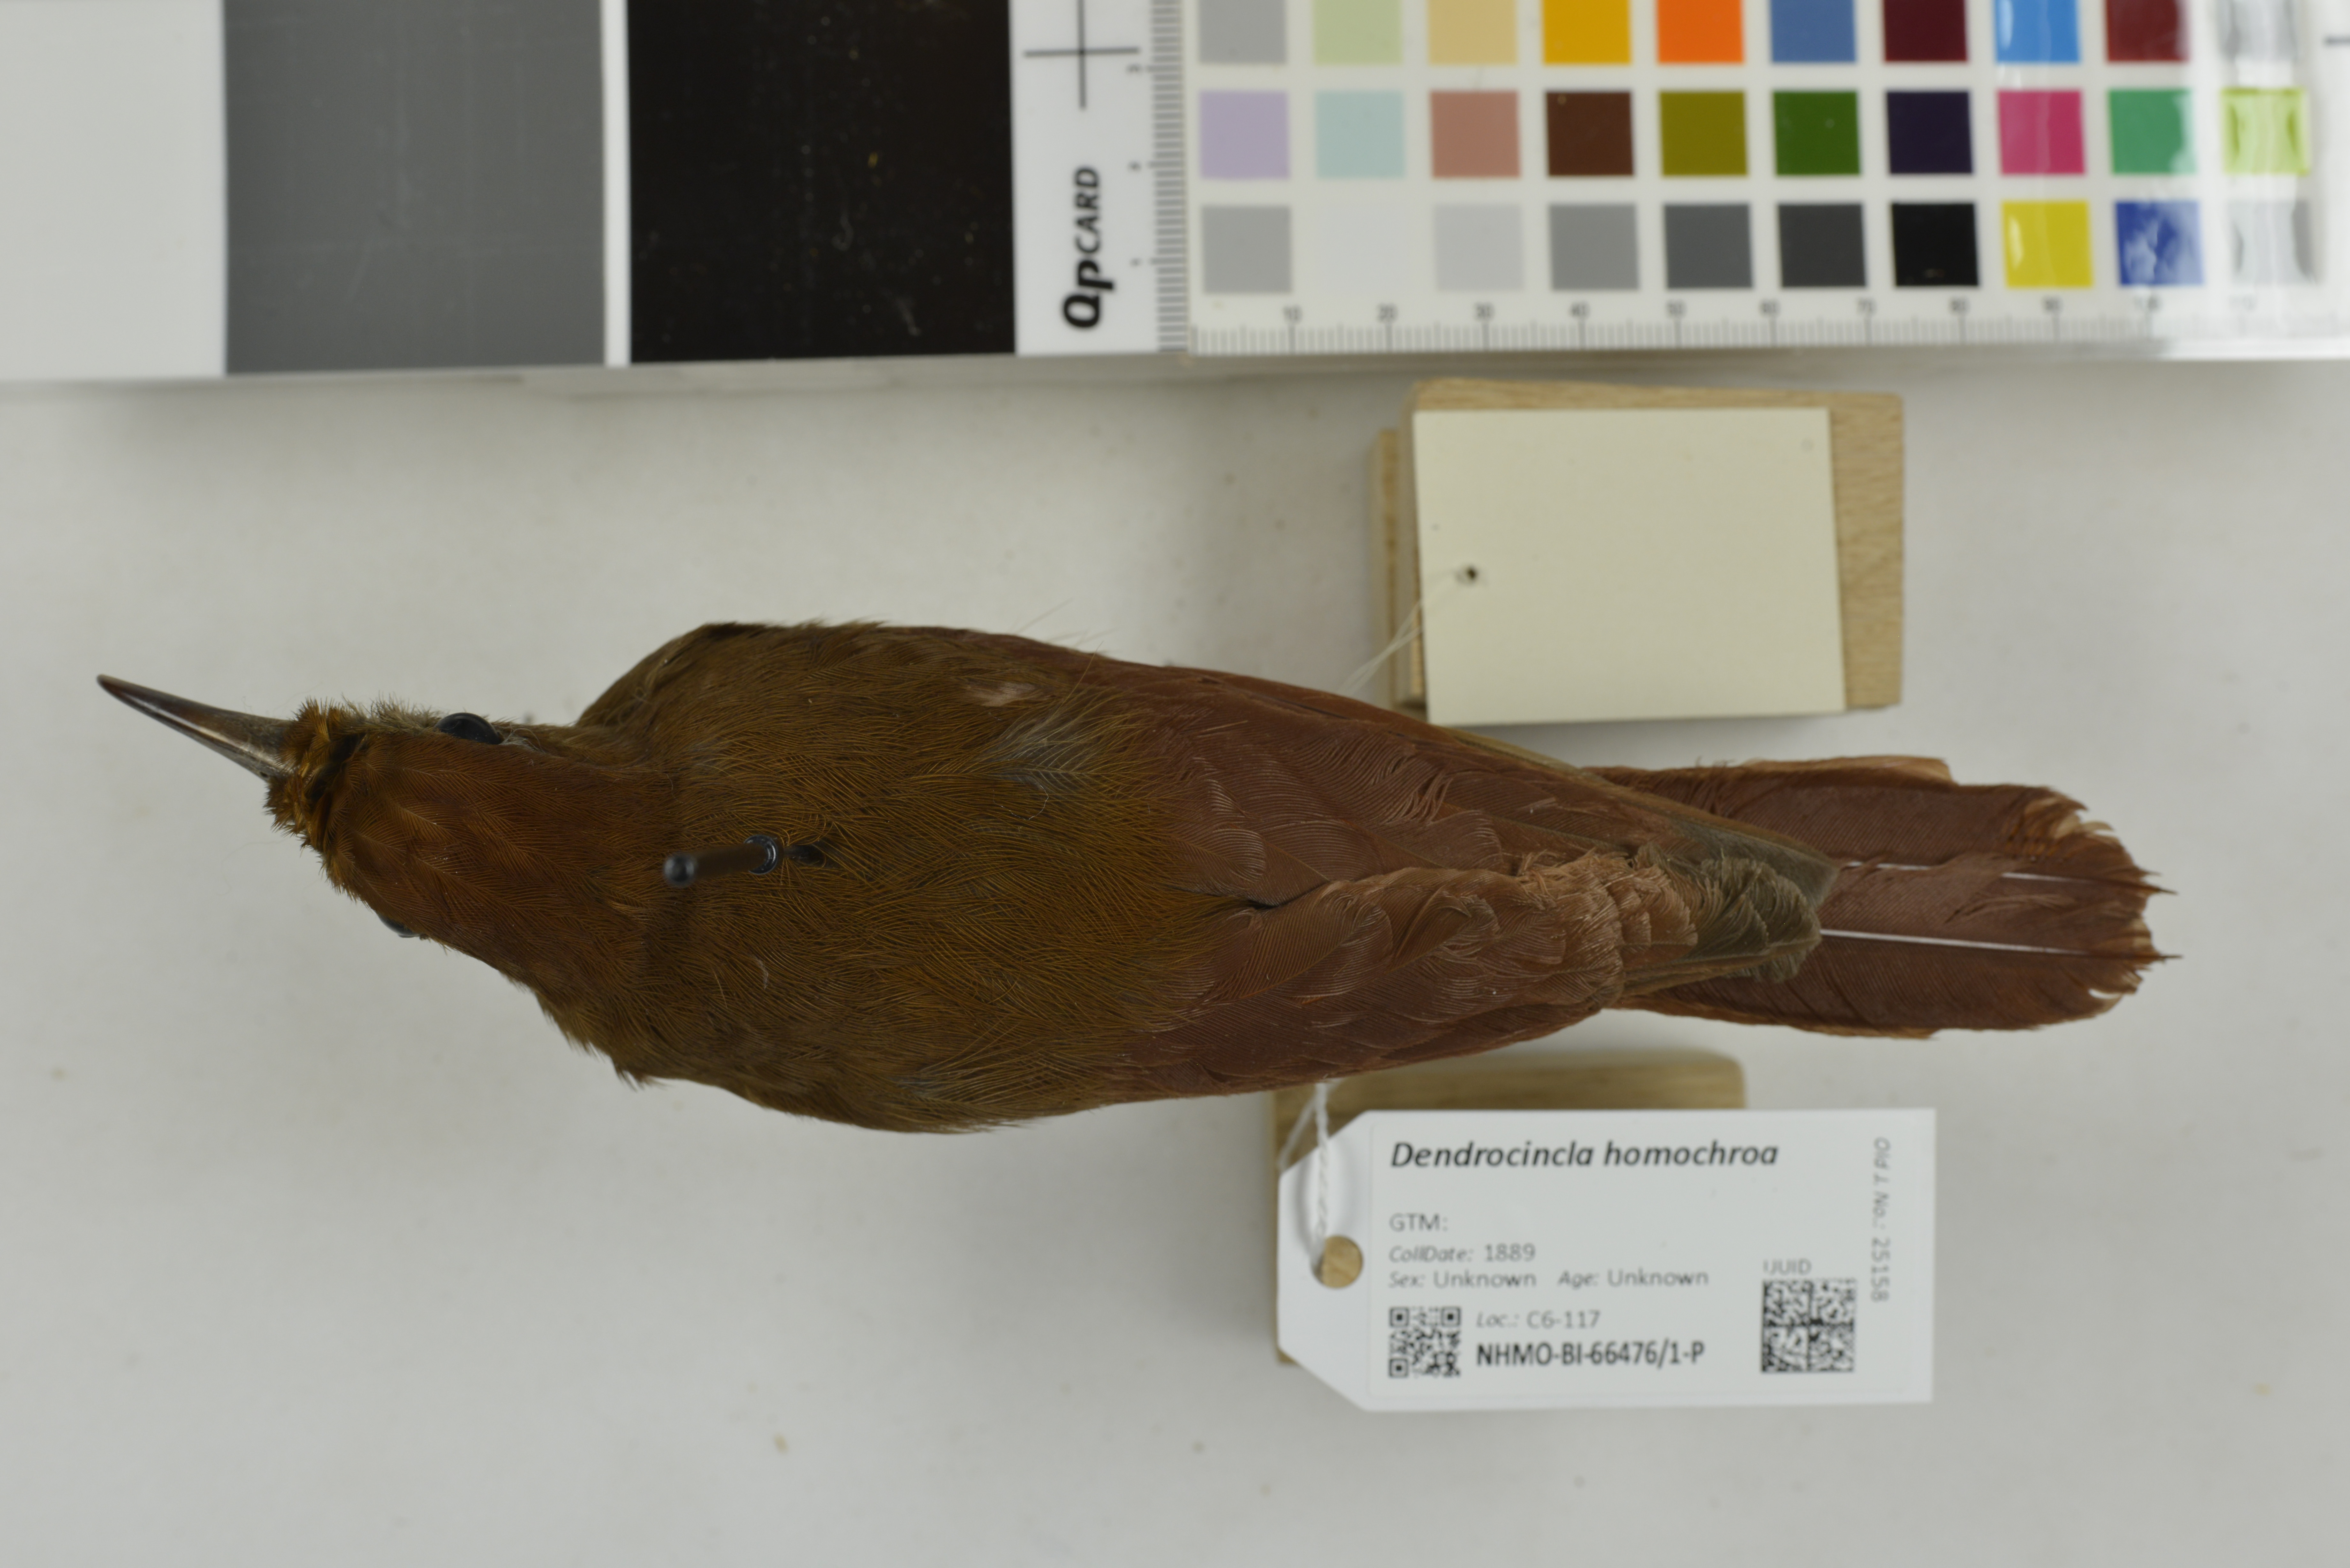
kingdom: Animalia
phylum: Chordata
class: Aves
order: Passeriformes
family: Furnariidae
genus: Dendrocincla
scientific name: Dendrocincla homochroa
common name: Ruddy woodcreeper
